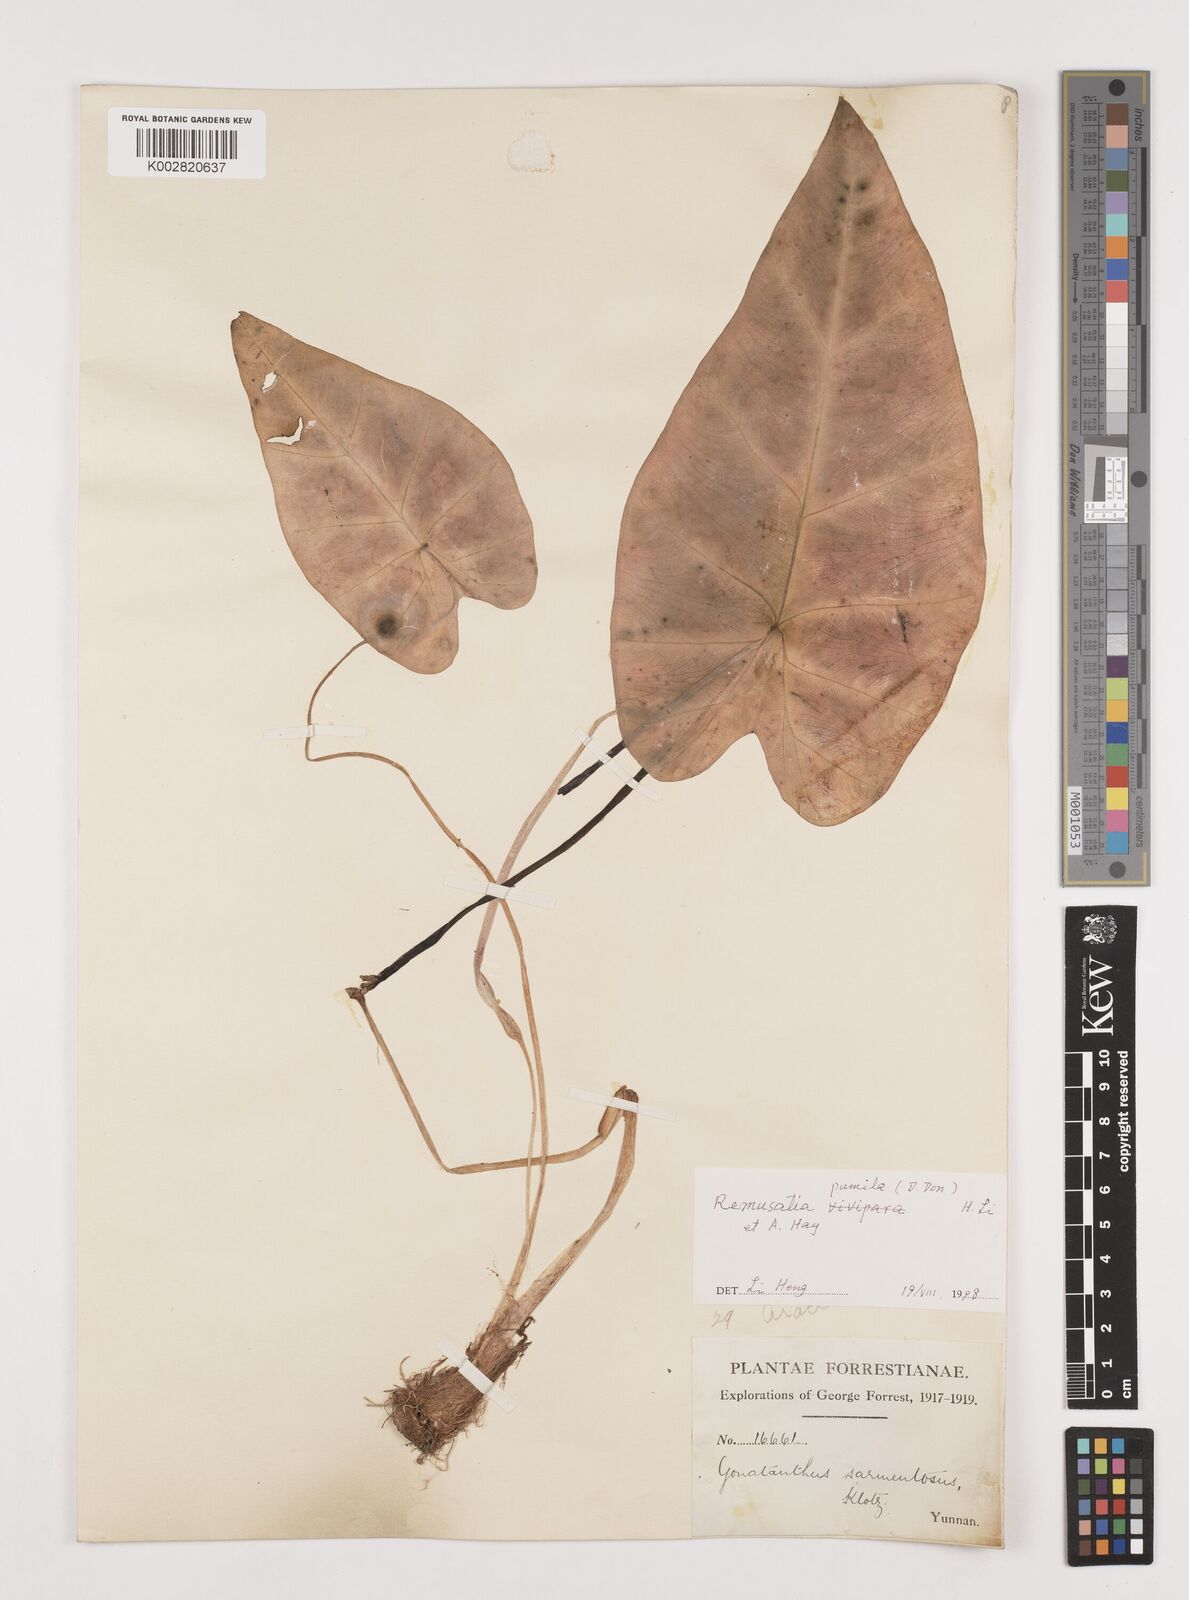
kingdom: Plantae
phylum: Tracheophyta
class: Liliopsida
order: Alismatales
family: Araceae
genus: Remusatia
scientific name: Remusatia pumila
